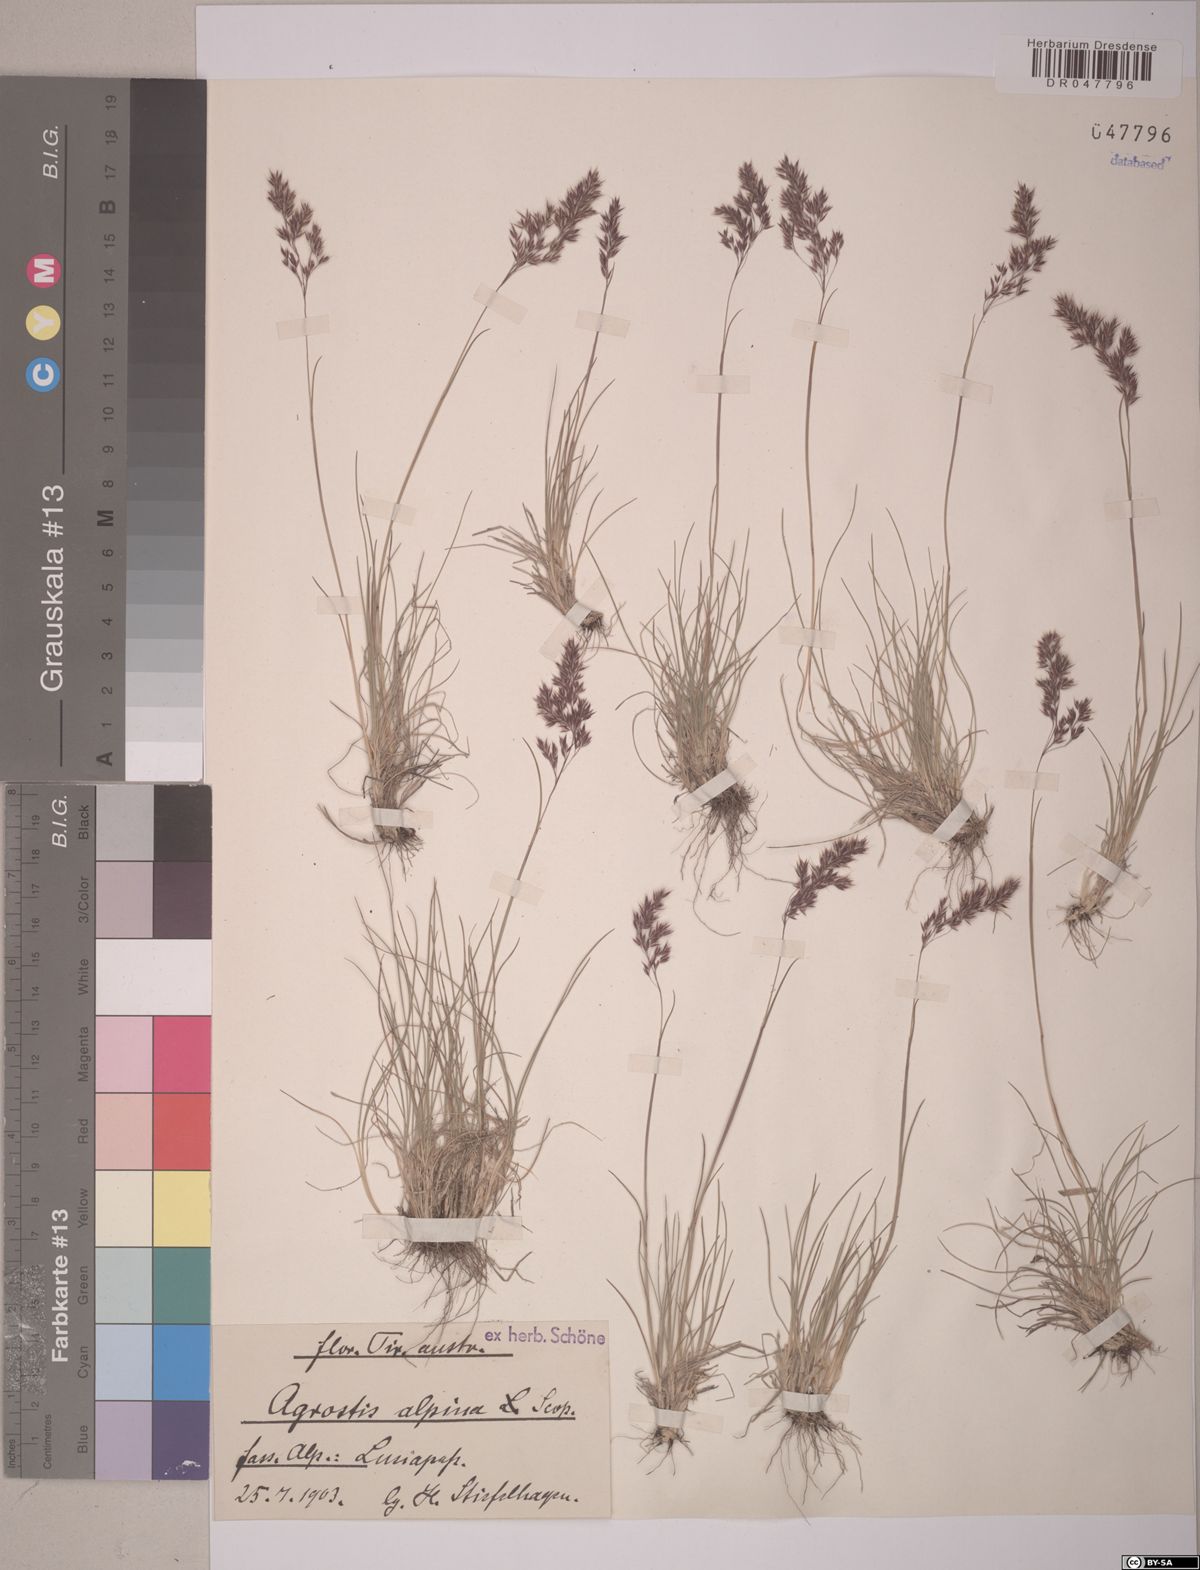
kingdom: Plantae
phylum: Tracheophyta
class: Liliopsida
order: Poales
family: Poaceae
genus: Alpagrostis
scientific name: Alpagrostis alpina
